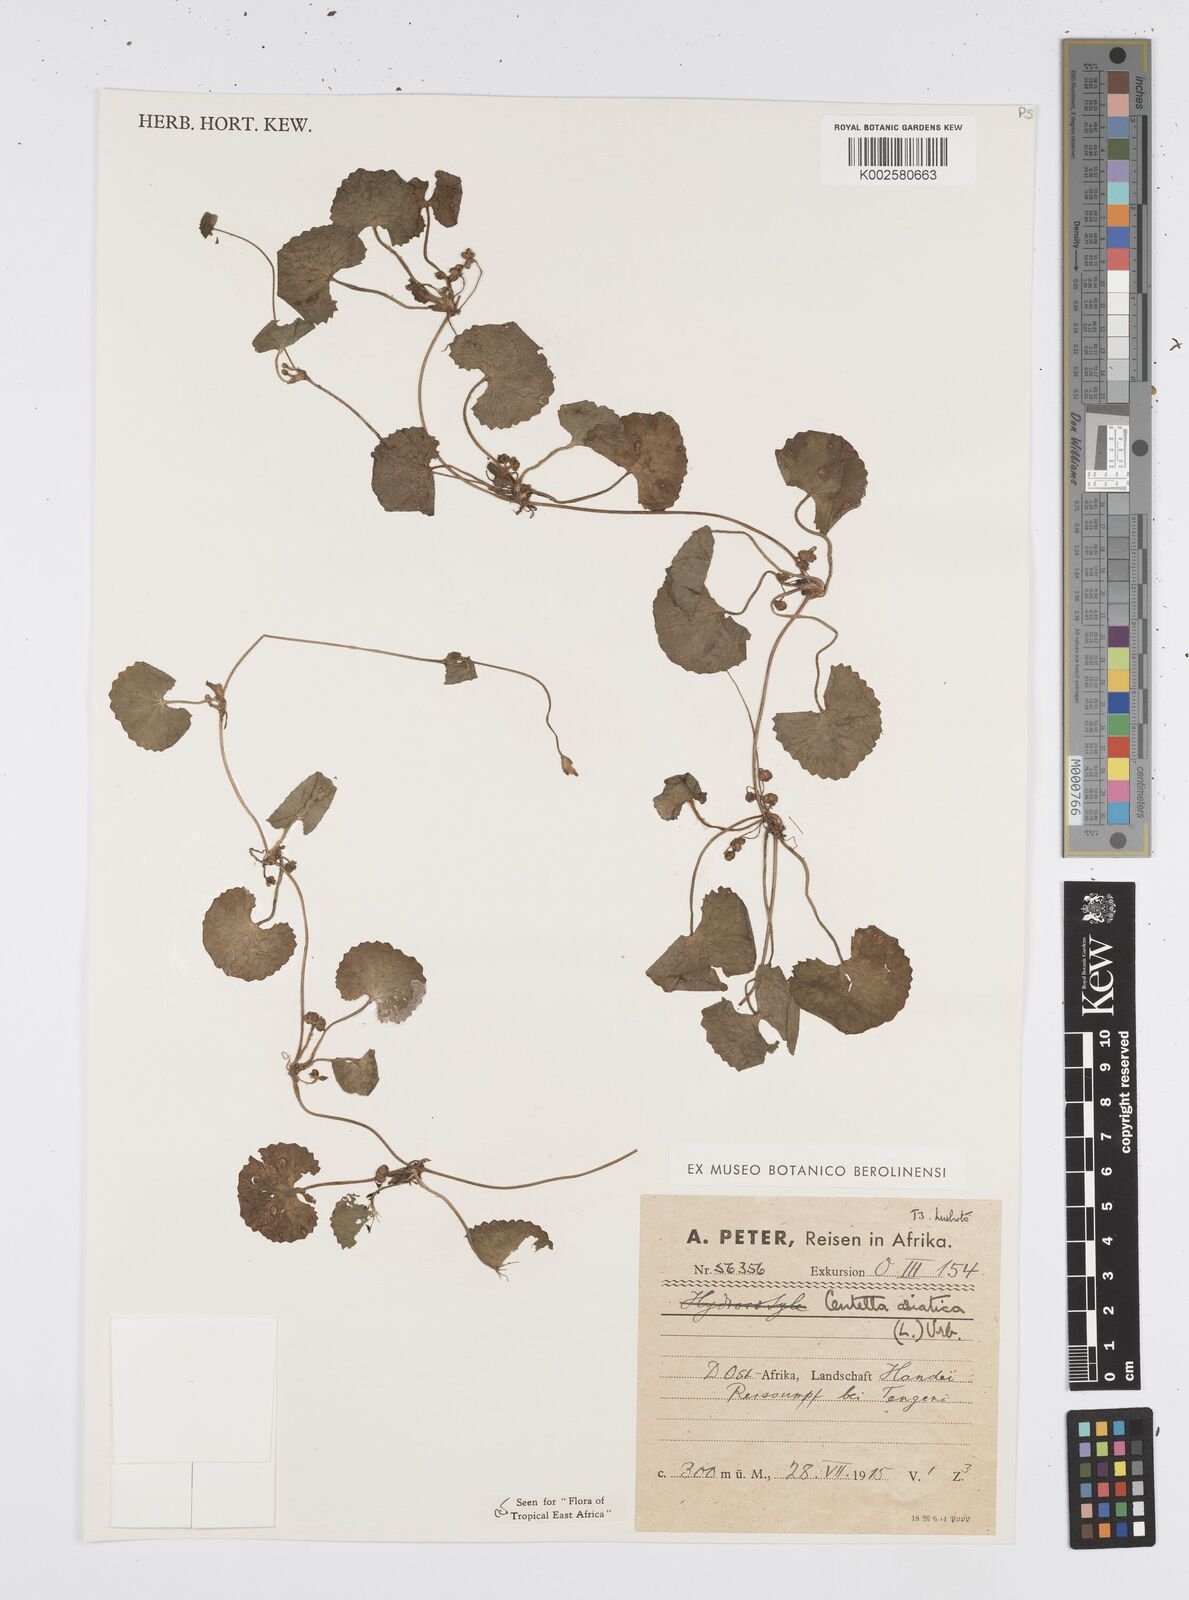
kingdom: Plantae
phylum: Tracheophyta
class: Magnoliopsida
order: Apiales
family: Apiaceae
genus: Centella
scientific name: Centella asiatica
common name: Spadeleaf
